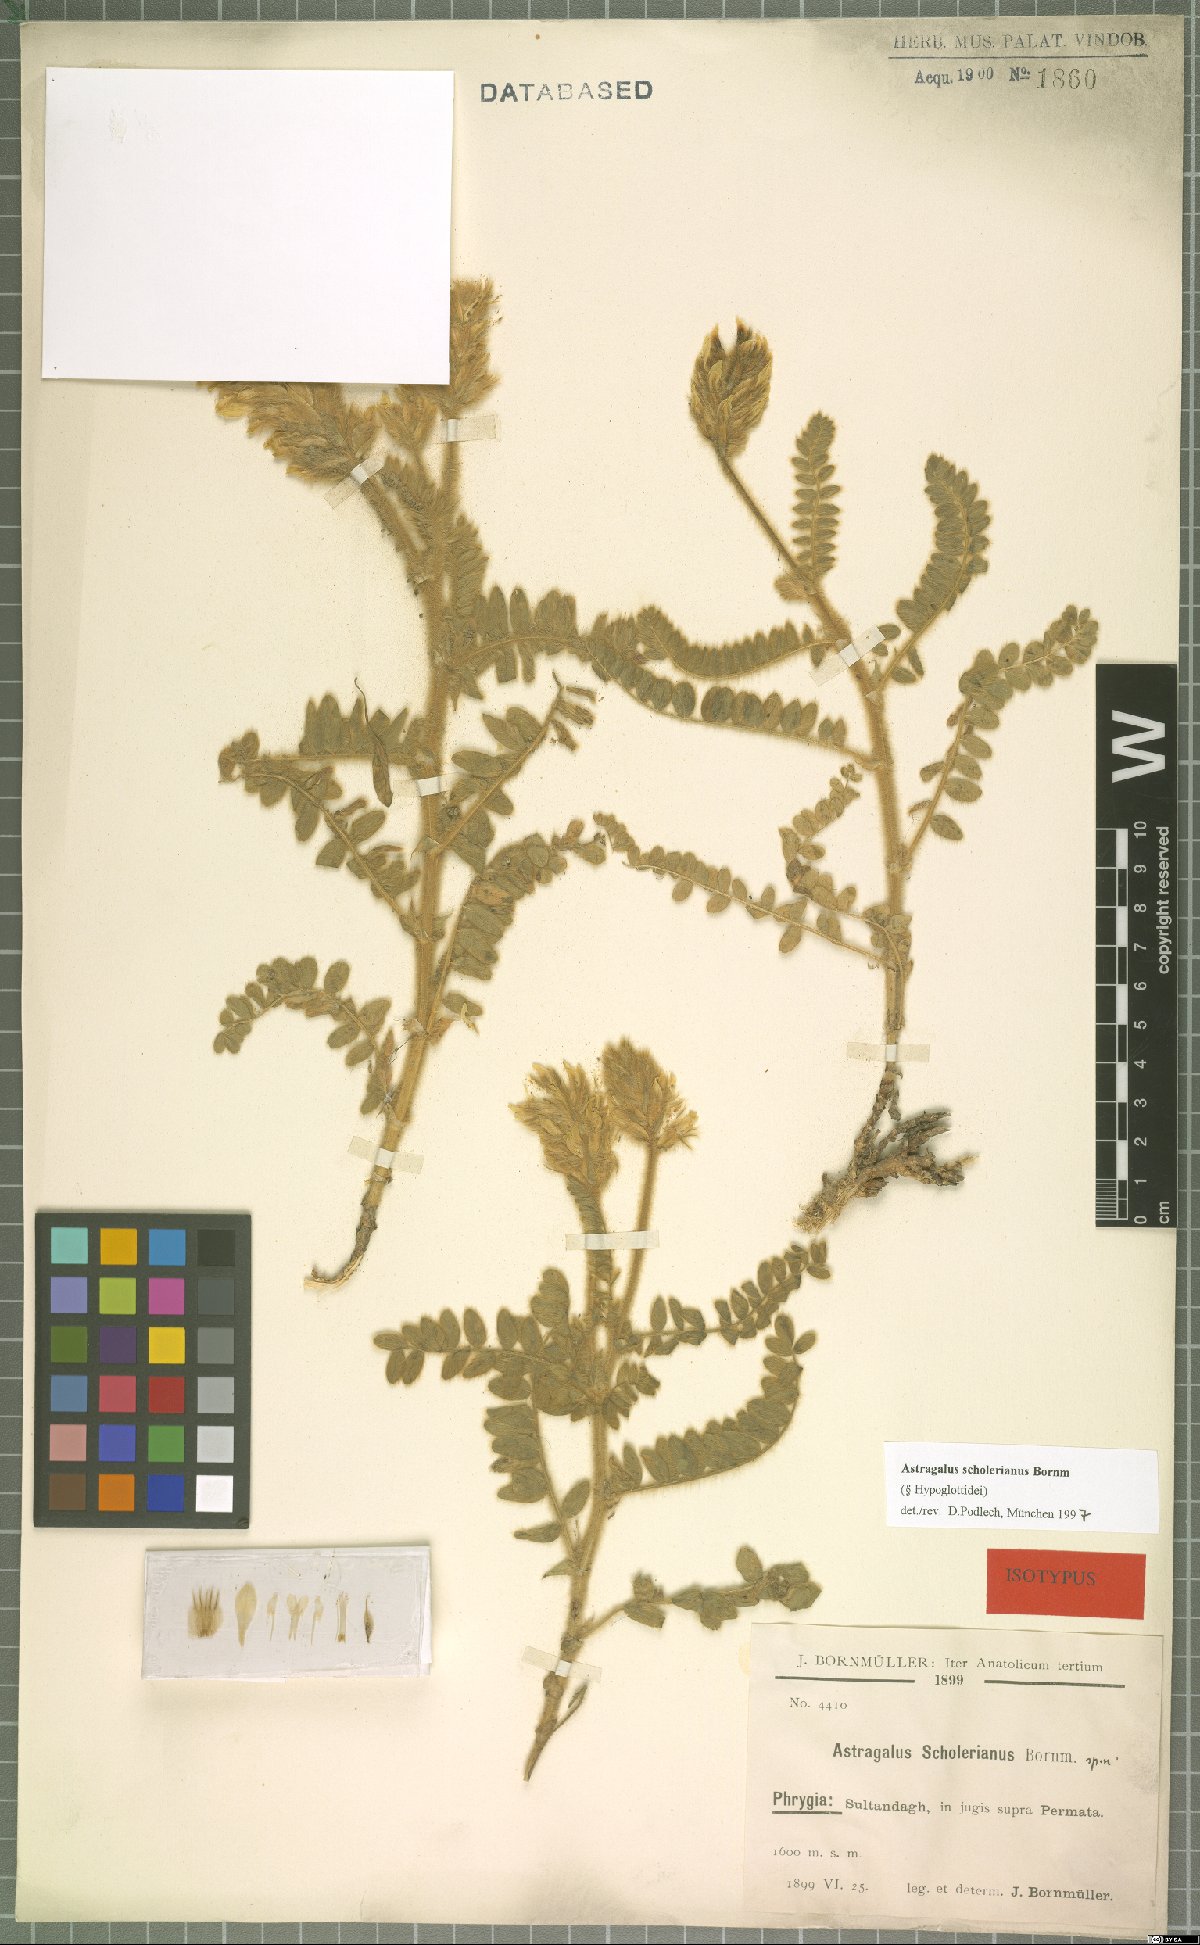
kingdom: Plantae
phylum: Tracheophyta
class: Magnoliopsida
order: Fabales
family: Fabaceae
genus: Astragalus
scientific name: Astragalus scholerianus
